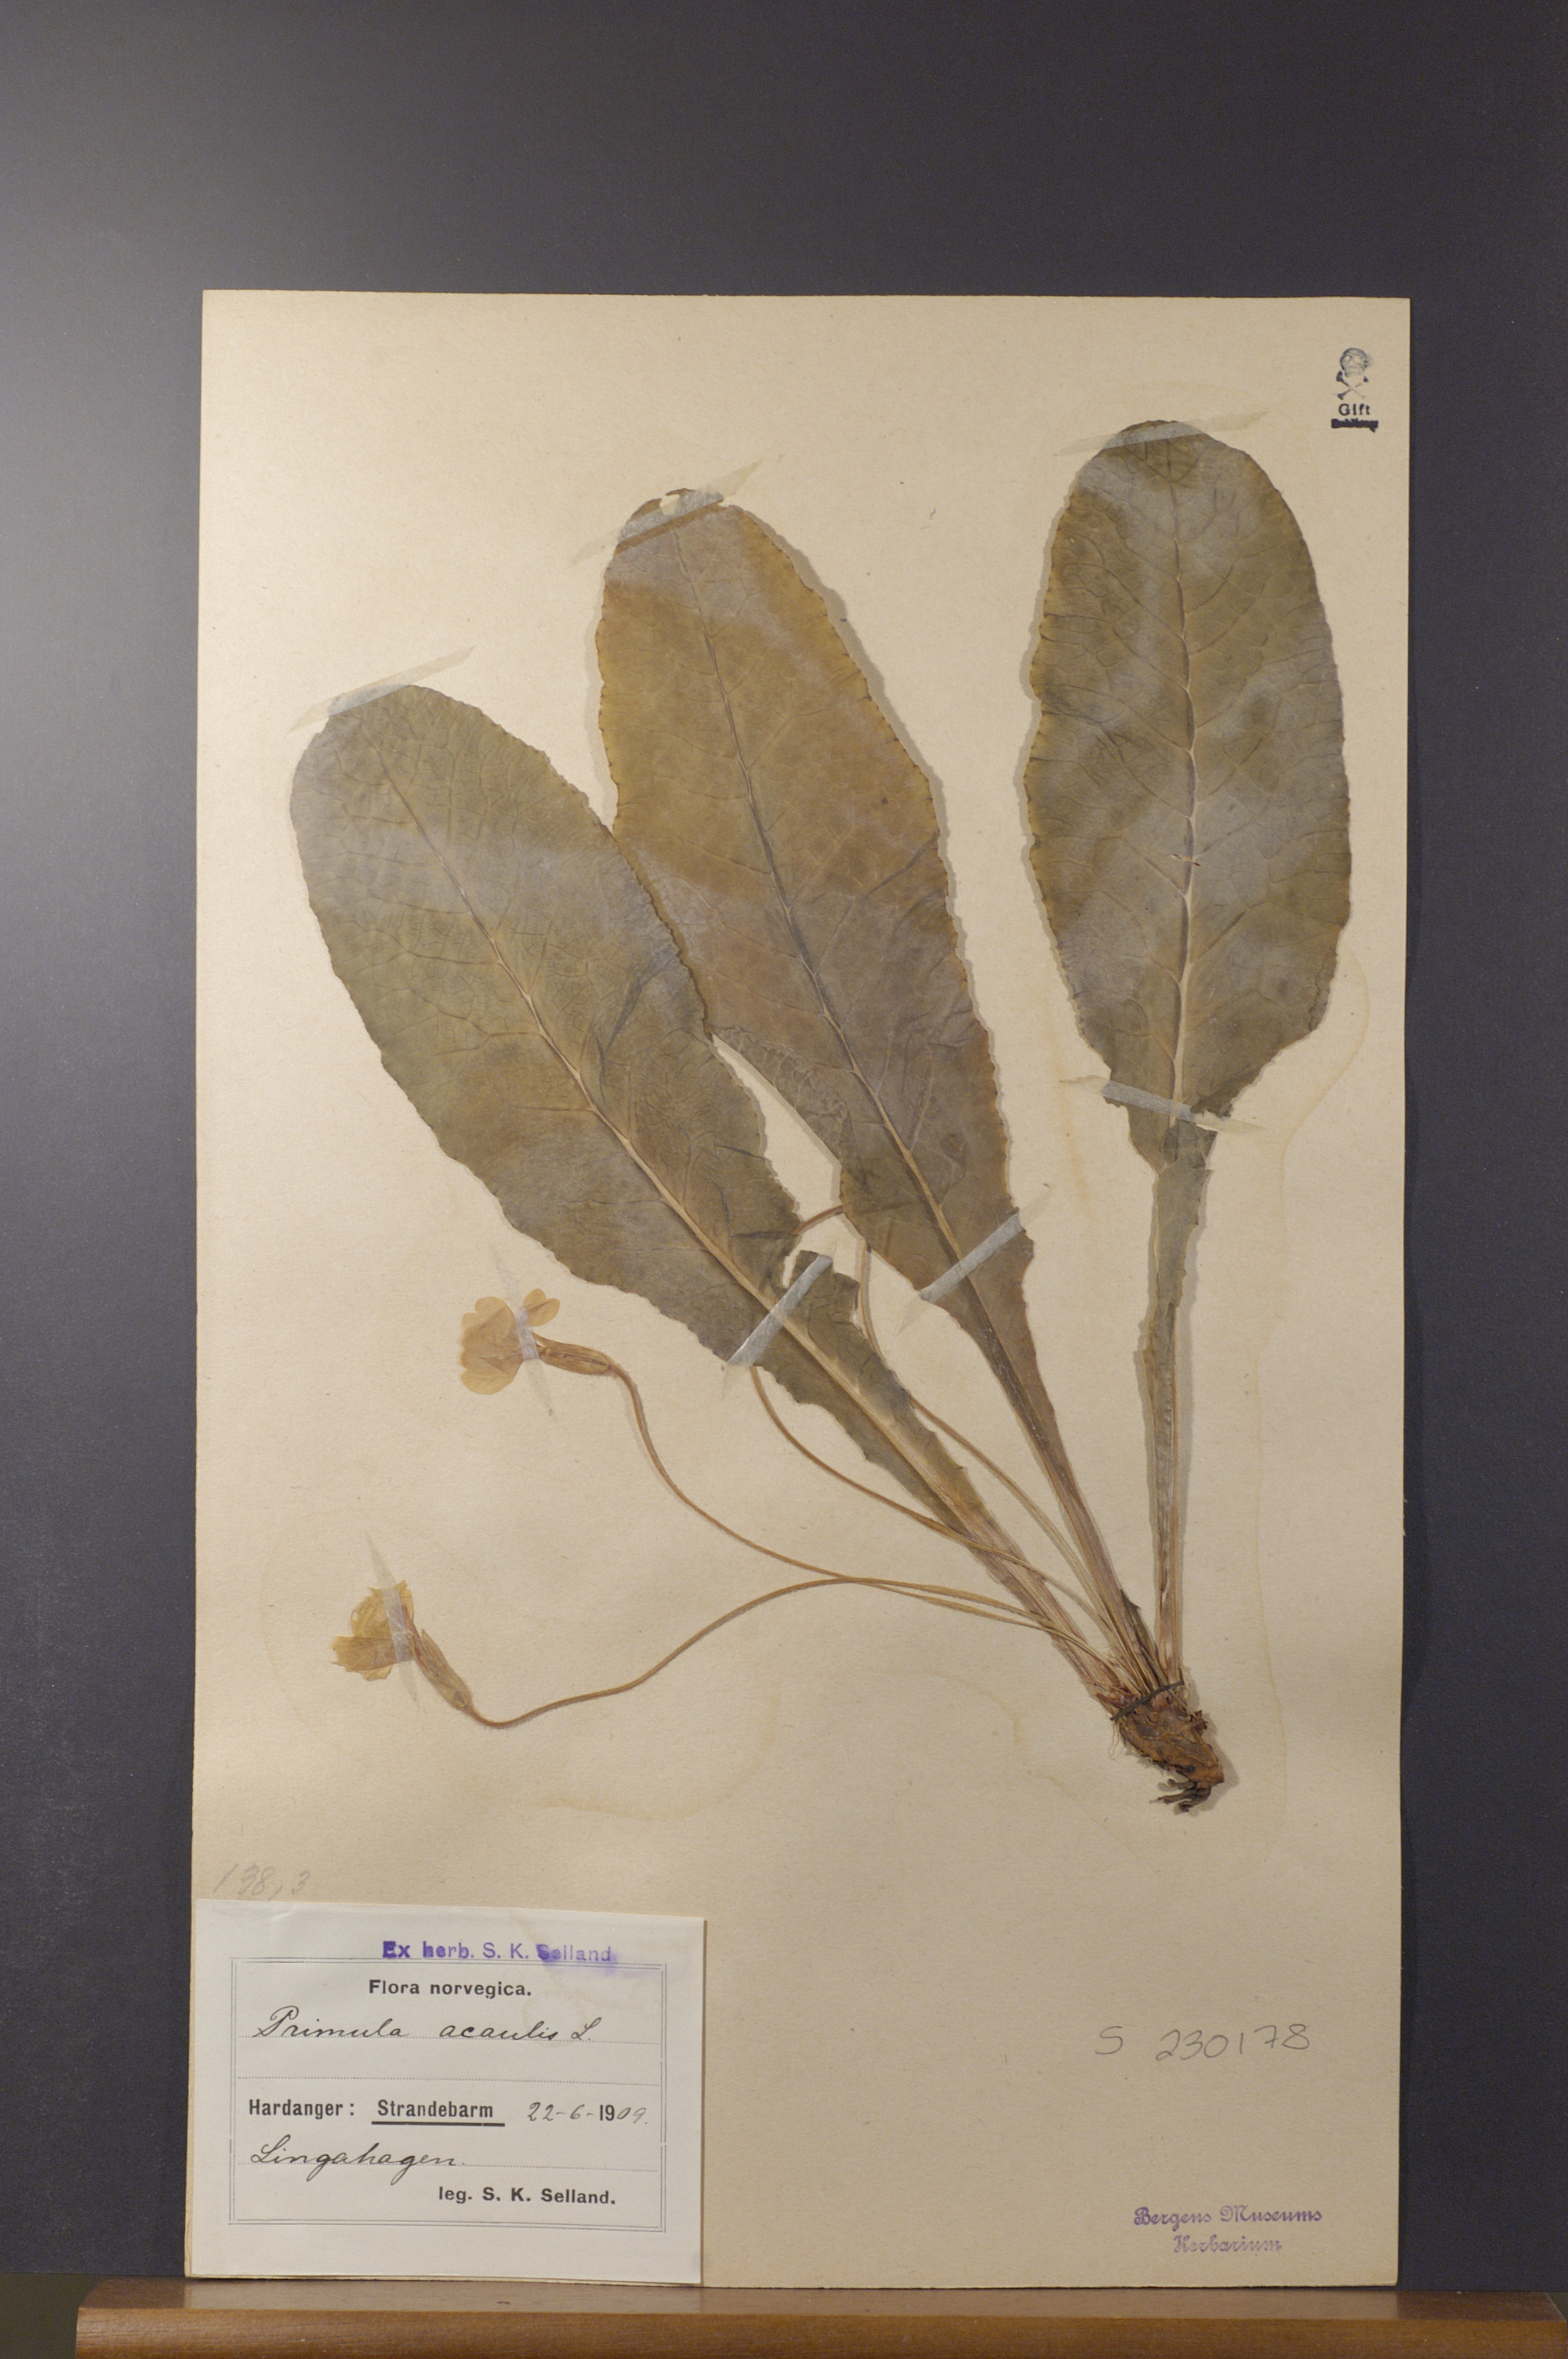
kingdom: Plantae
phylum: Tracheophyta
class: Magnoliopsida
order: Ericales
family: Primulaceae
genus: Primula
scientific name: Primula vulgaris
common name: Primrose
